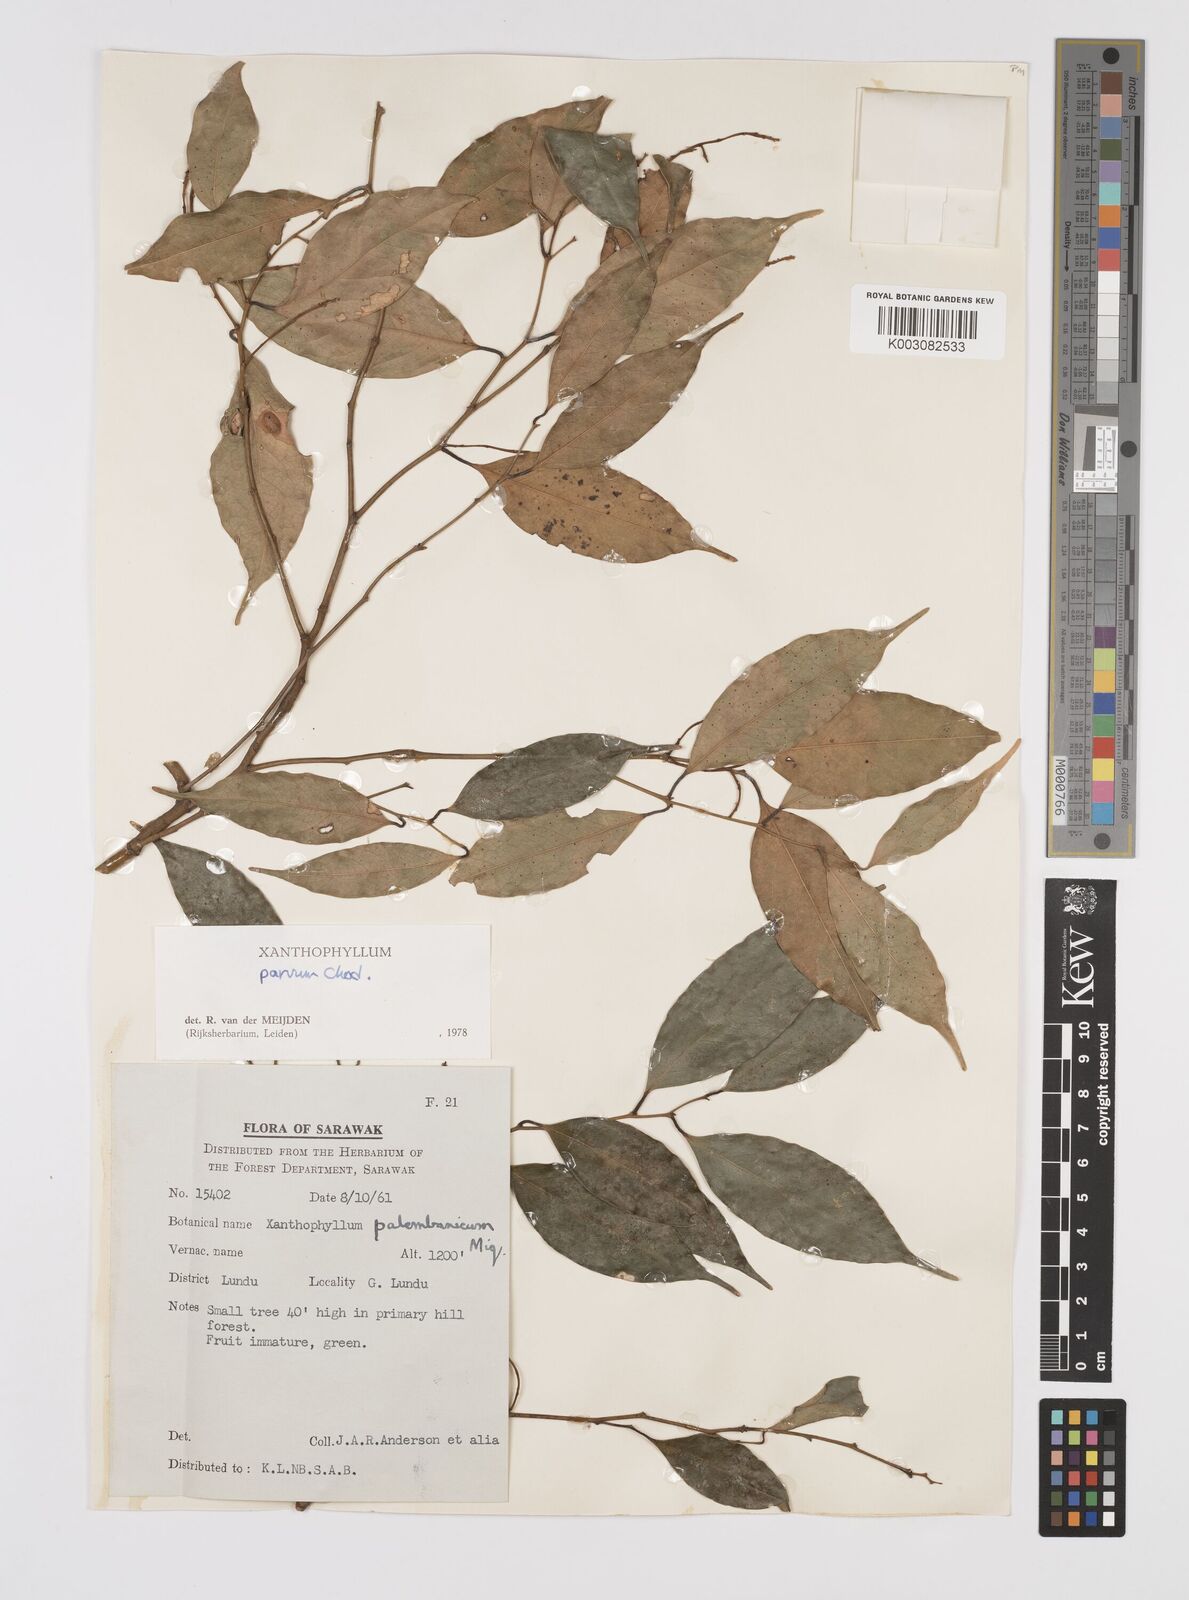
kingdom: Plantae
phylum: Tracheophyta
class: Magnoliopsida
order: Fabales
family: Polygalaceae
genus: Xanthophyllum
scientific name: Xanthophyllum griffithii
